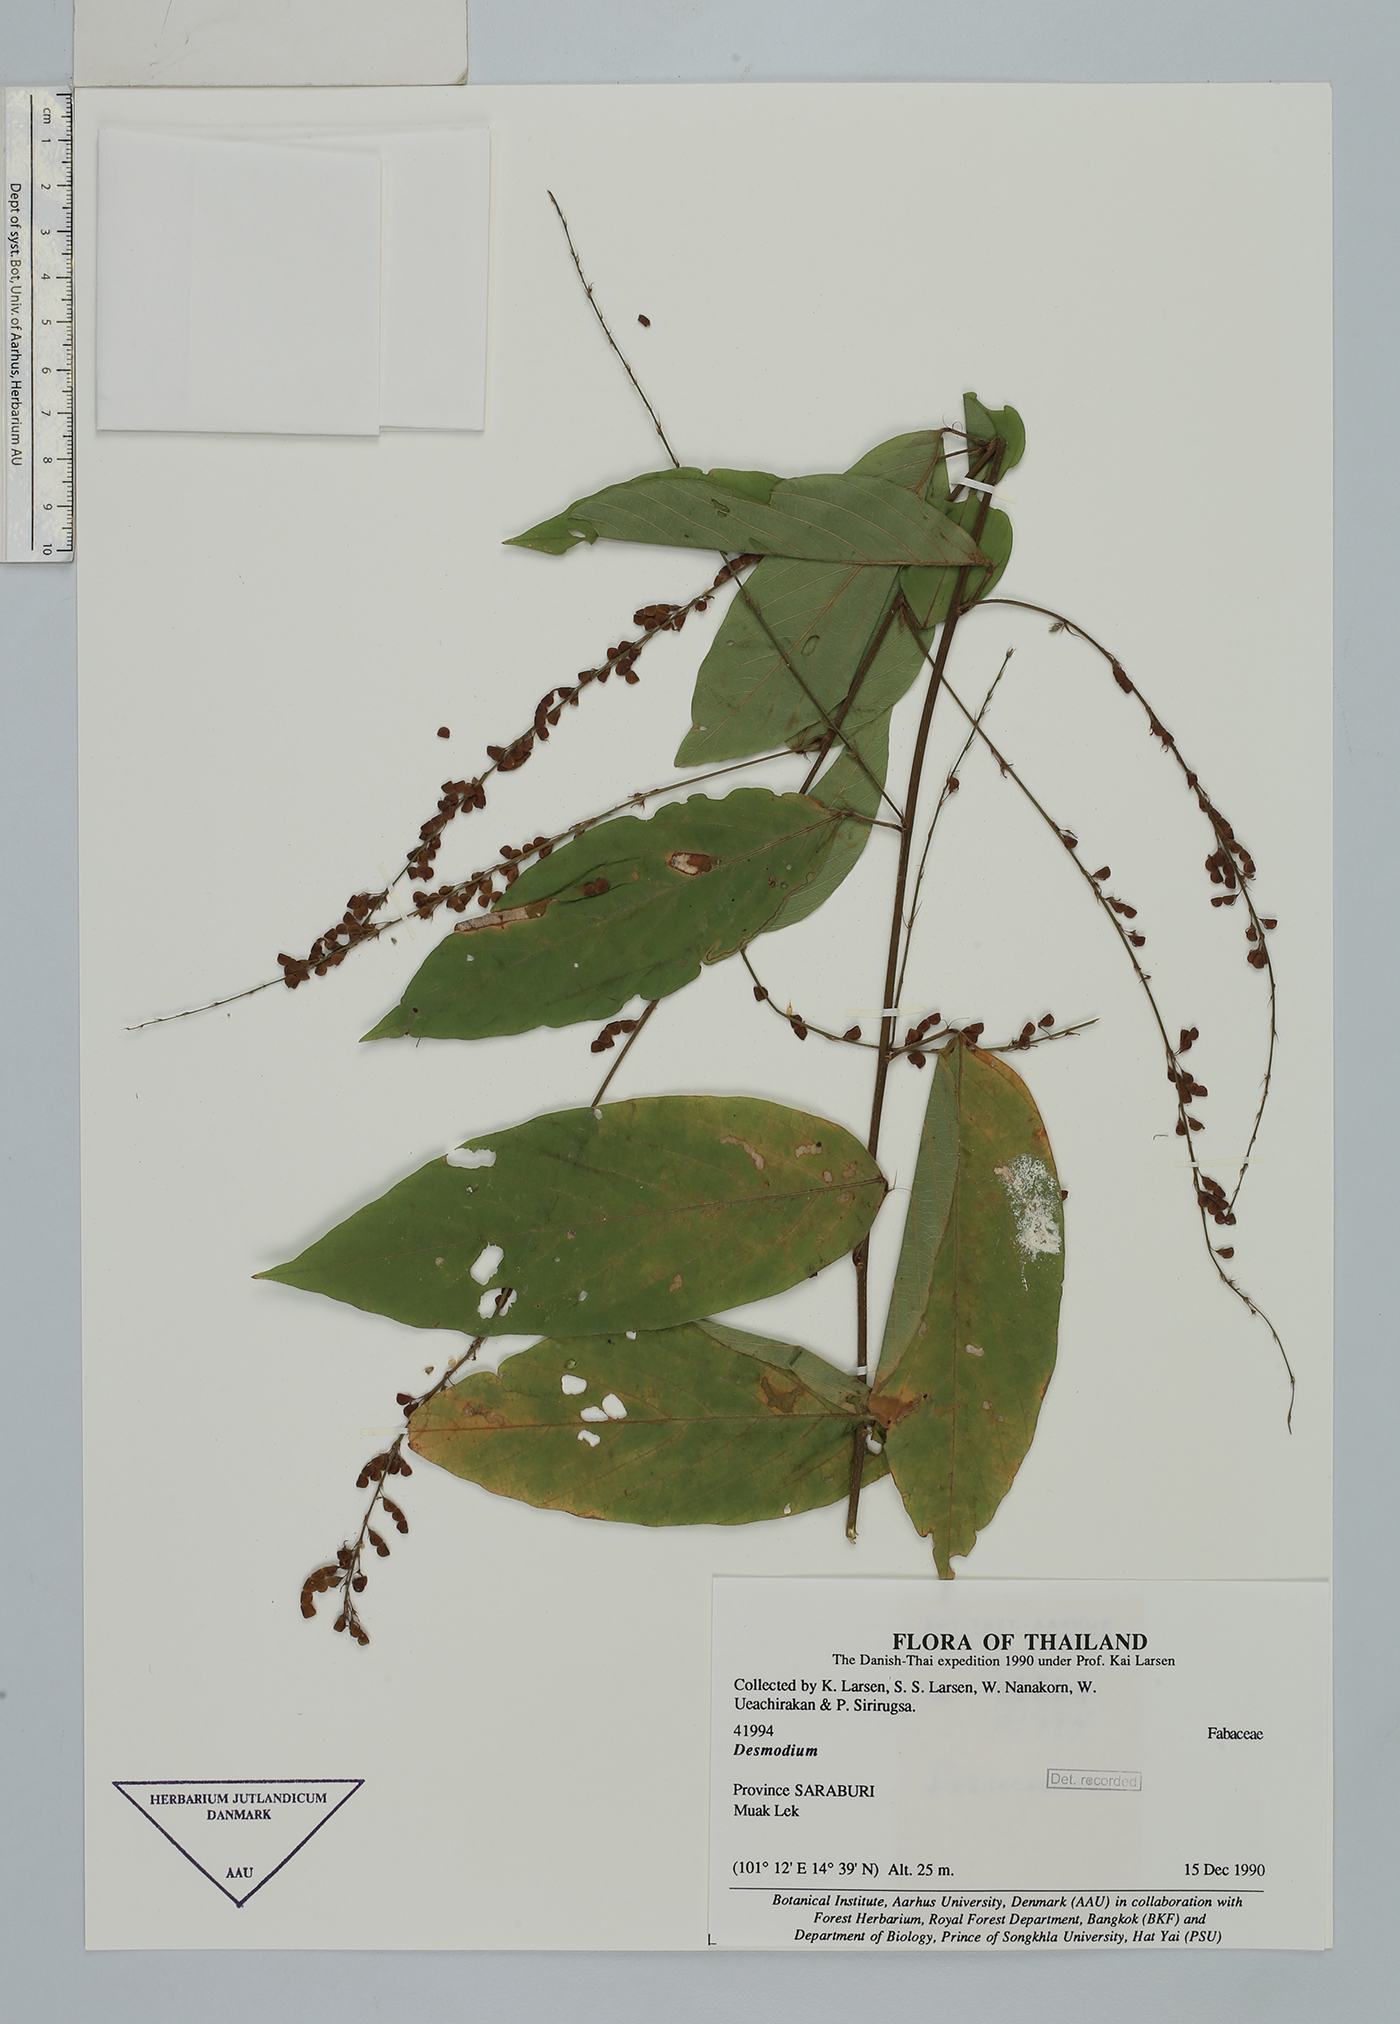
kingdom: Plantae
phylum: Tracheophyta
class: Magnoliopsida
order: Fabales
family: Fabaceae
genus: Pleurolobus
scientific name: Pleurolobus gangeticus
